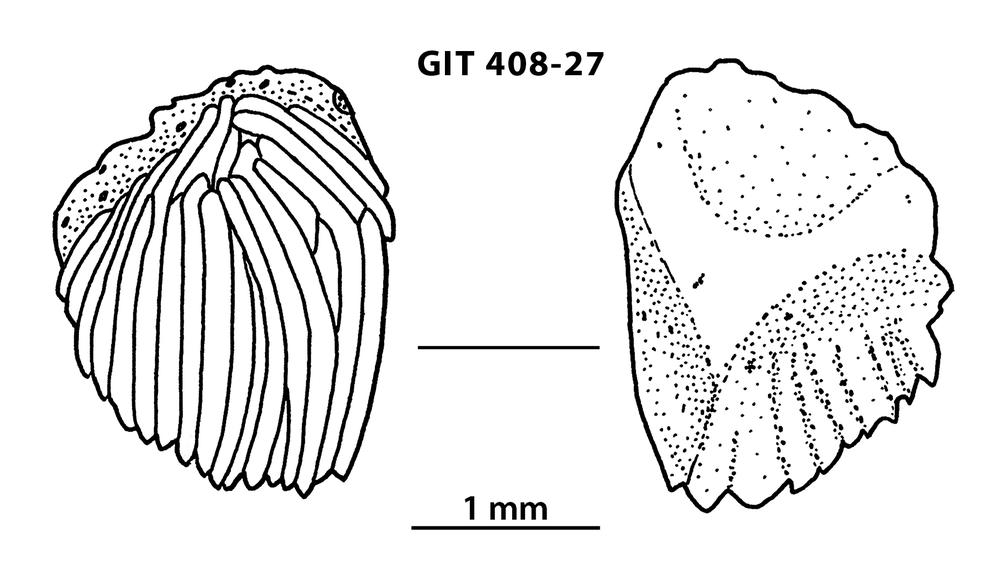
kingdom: Animalia
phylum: Chordata
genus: Archegonaspis
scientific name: Archegonaspis
